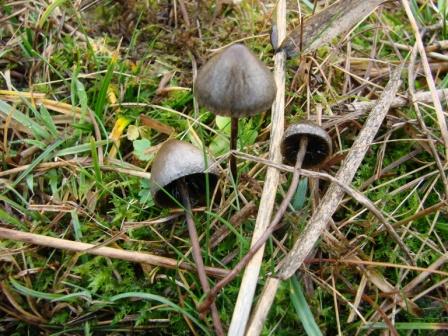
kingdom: Fungi
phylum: Basidiomycota
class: Agaricomycetes
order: Agaricales
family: Bolbitiaceae
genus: Panaeolus
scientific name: Panaeolus papilionaceus
